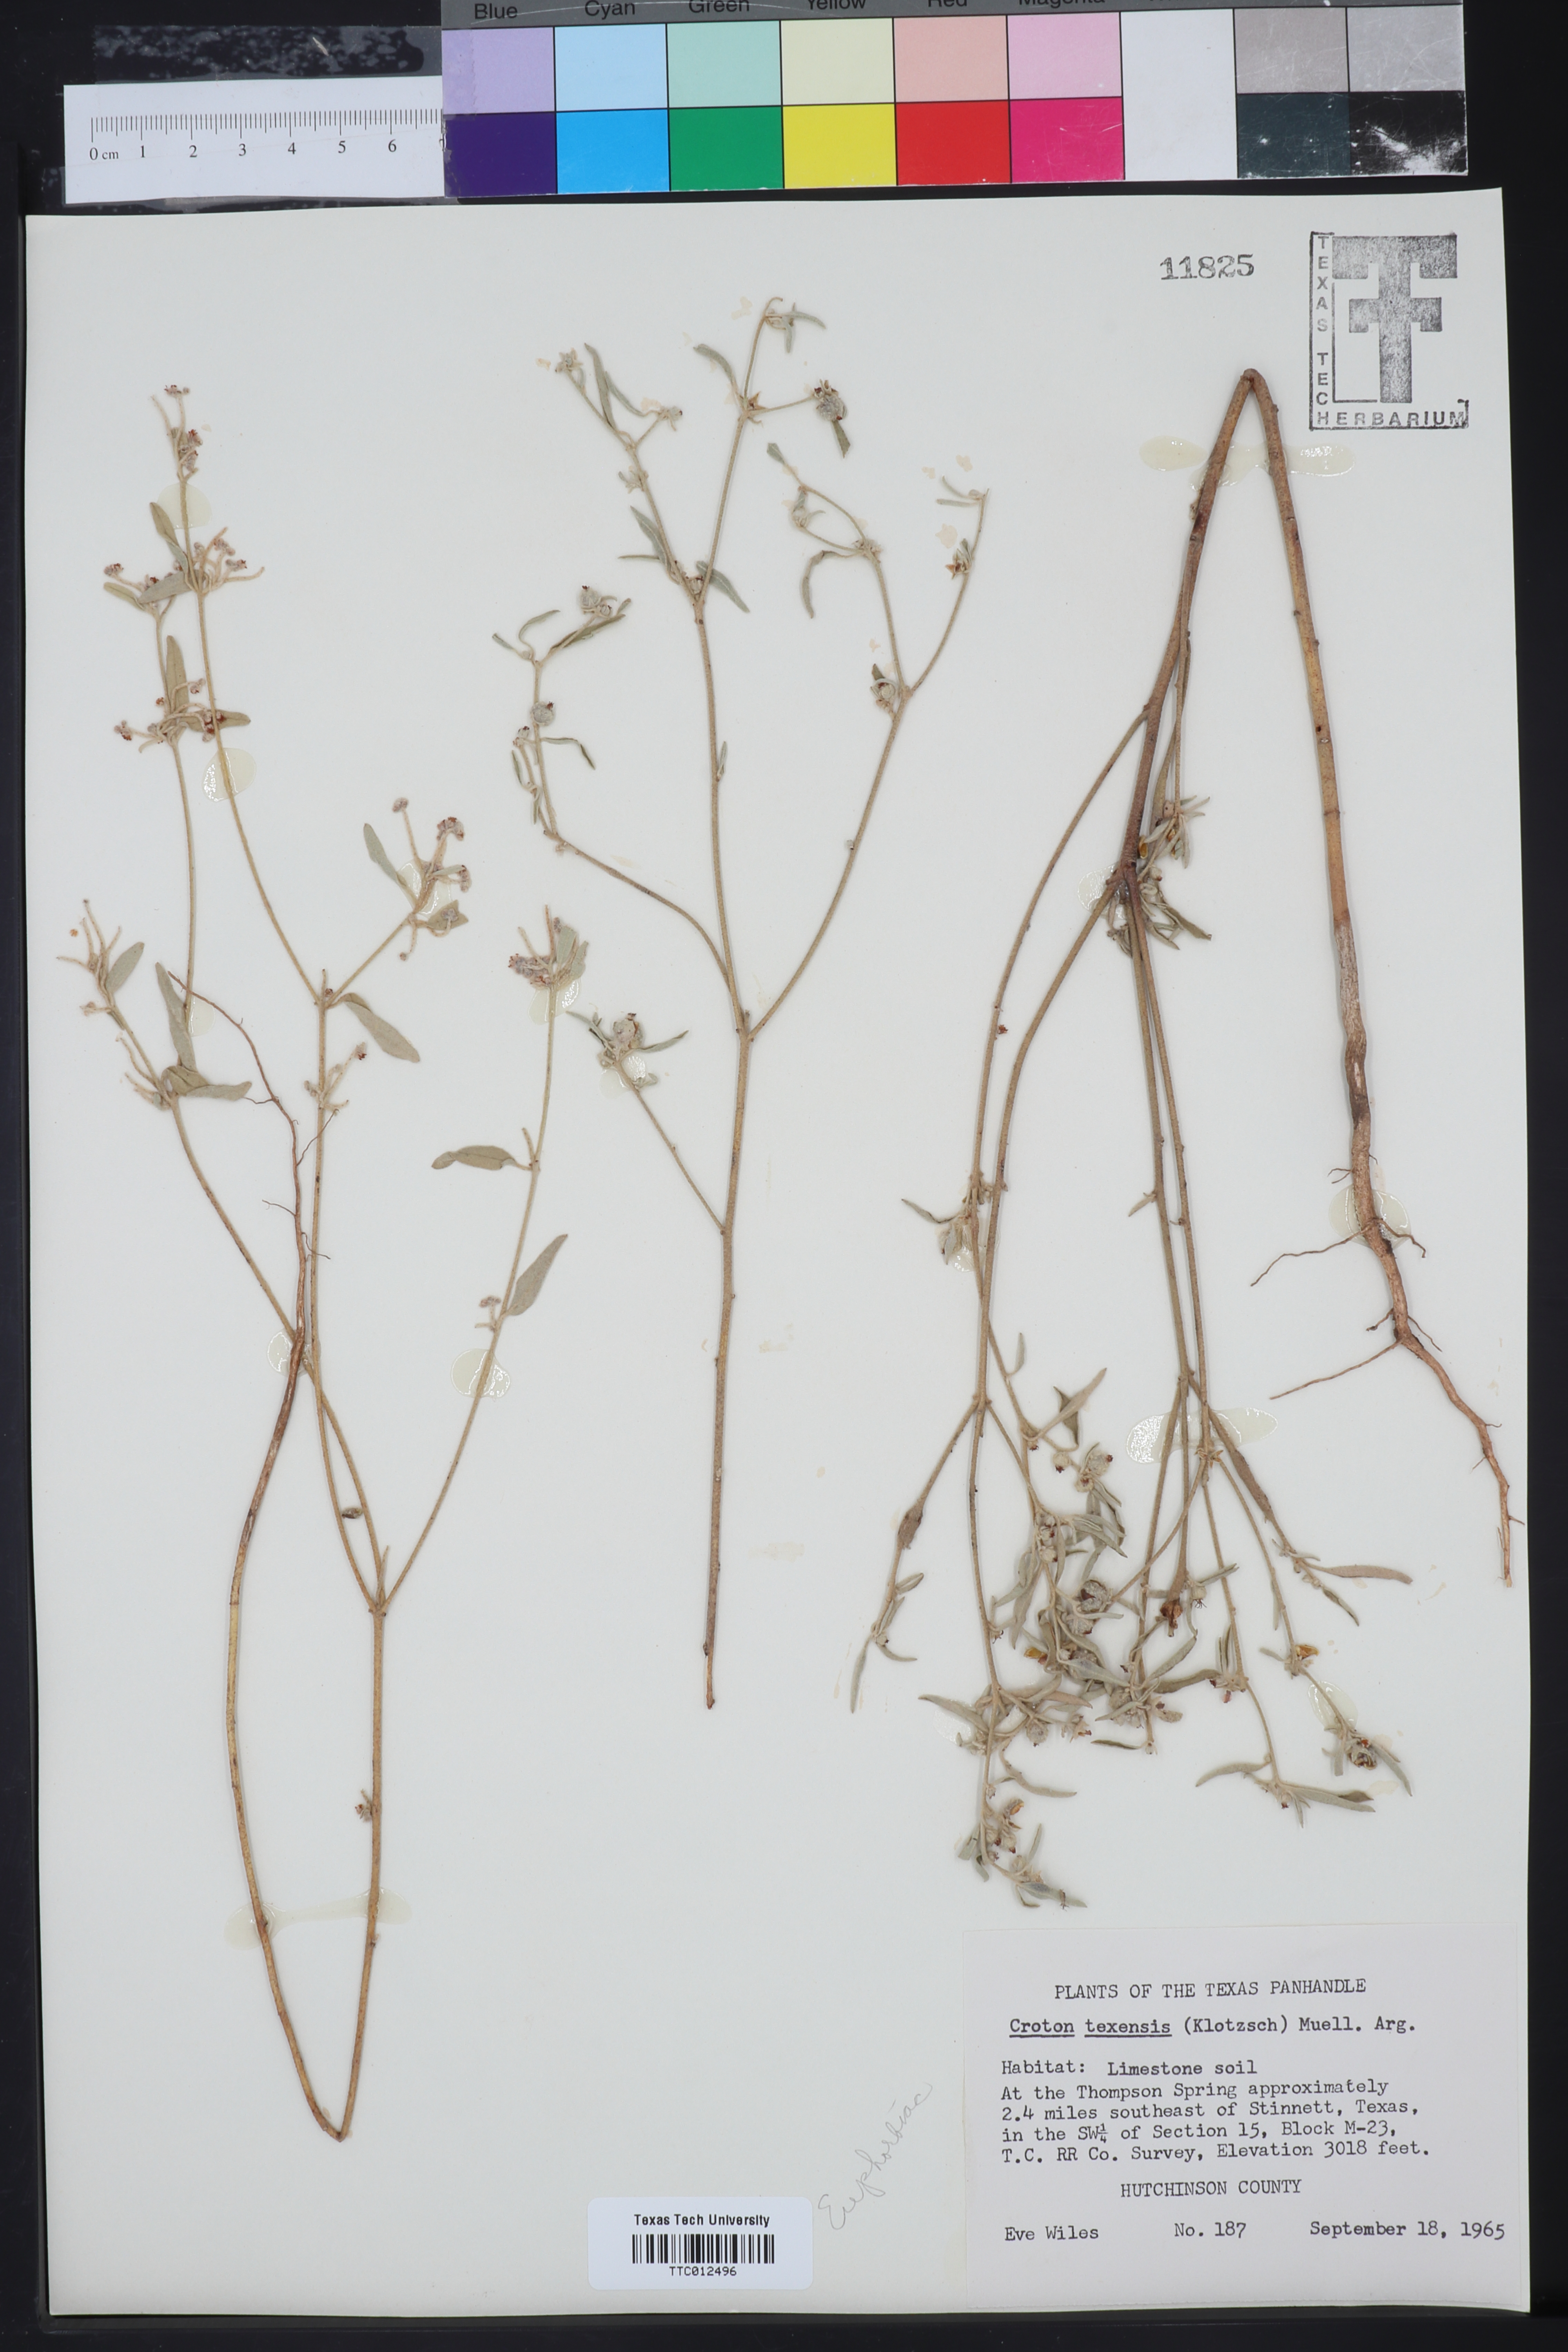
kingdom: Plantae
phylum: Tracheophyta
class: Magnoliopsida
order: Malpighiales
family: Euphorbiaceae
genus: Croton
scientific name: Croton texensis
